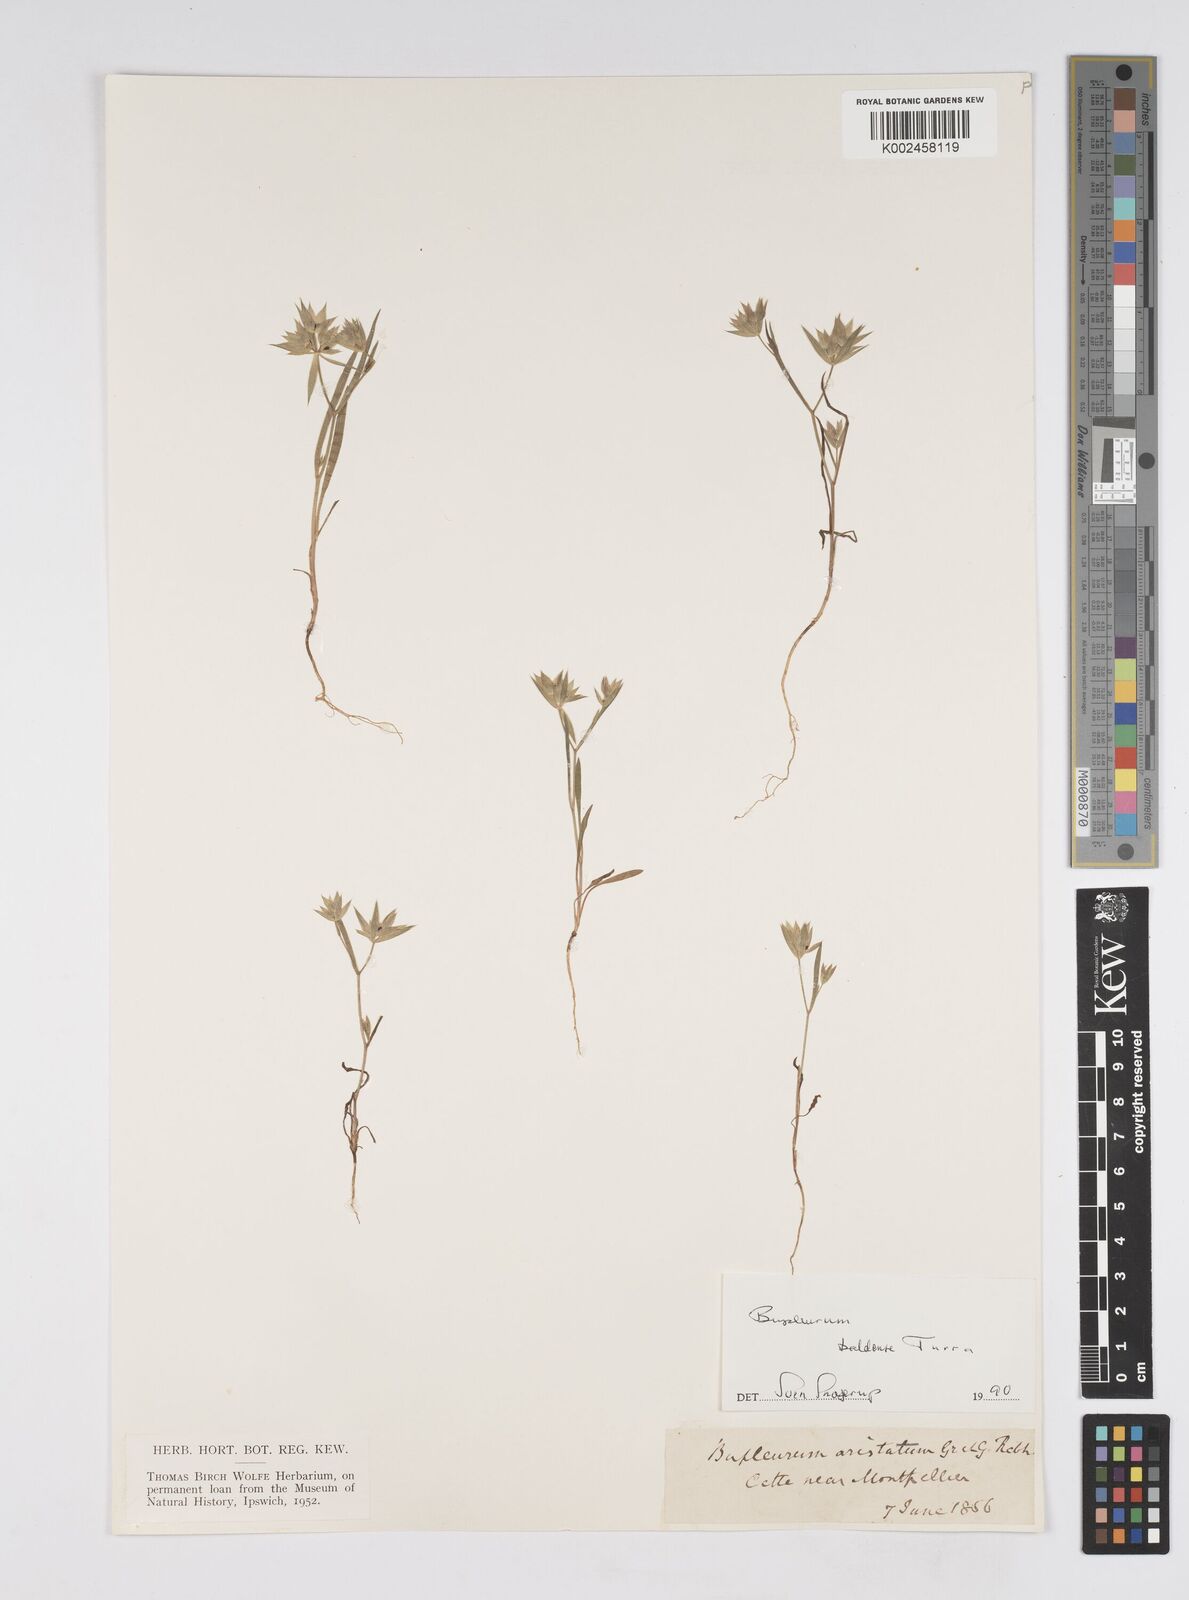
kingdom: Plantae
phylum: Tracheophyta
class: Magnoliopsida
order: Apiales
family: Apiaceae
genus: Bupleurum
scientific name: Bupleurum baldense
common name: Small hare's-ear
